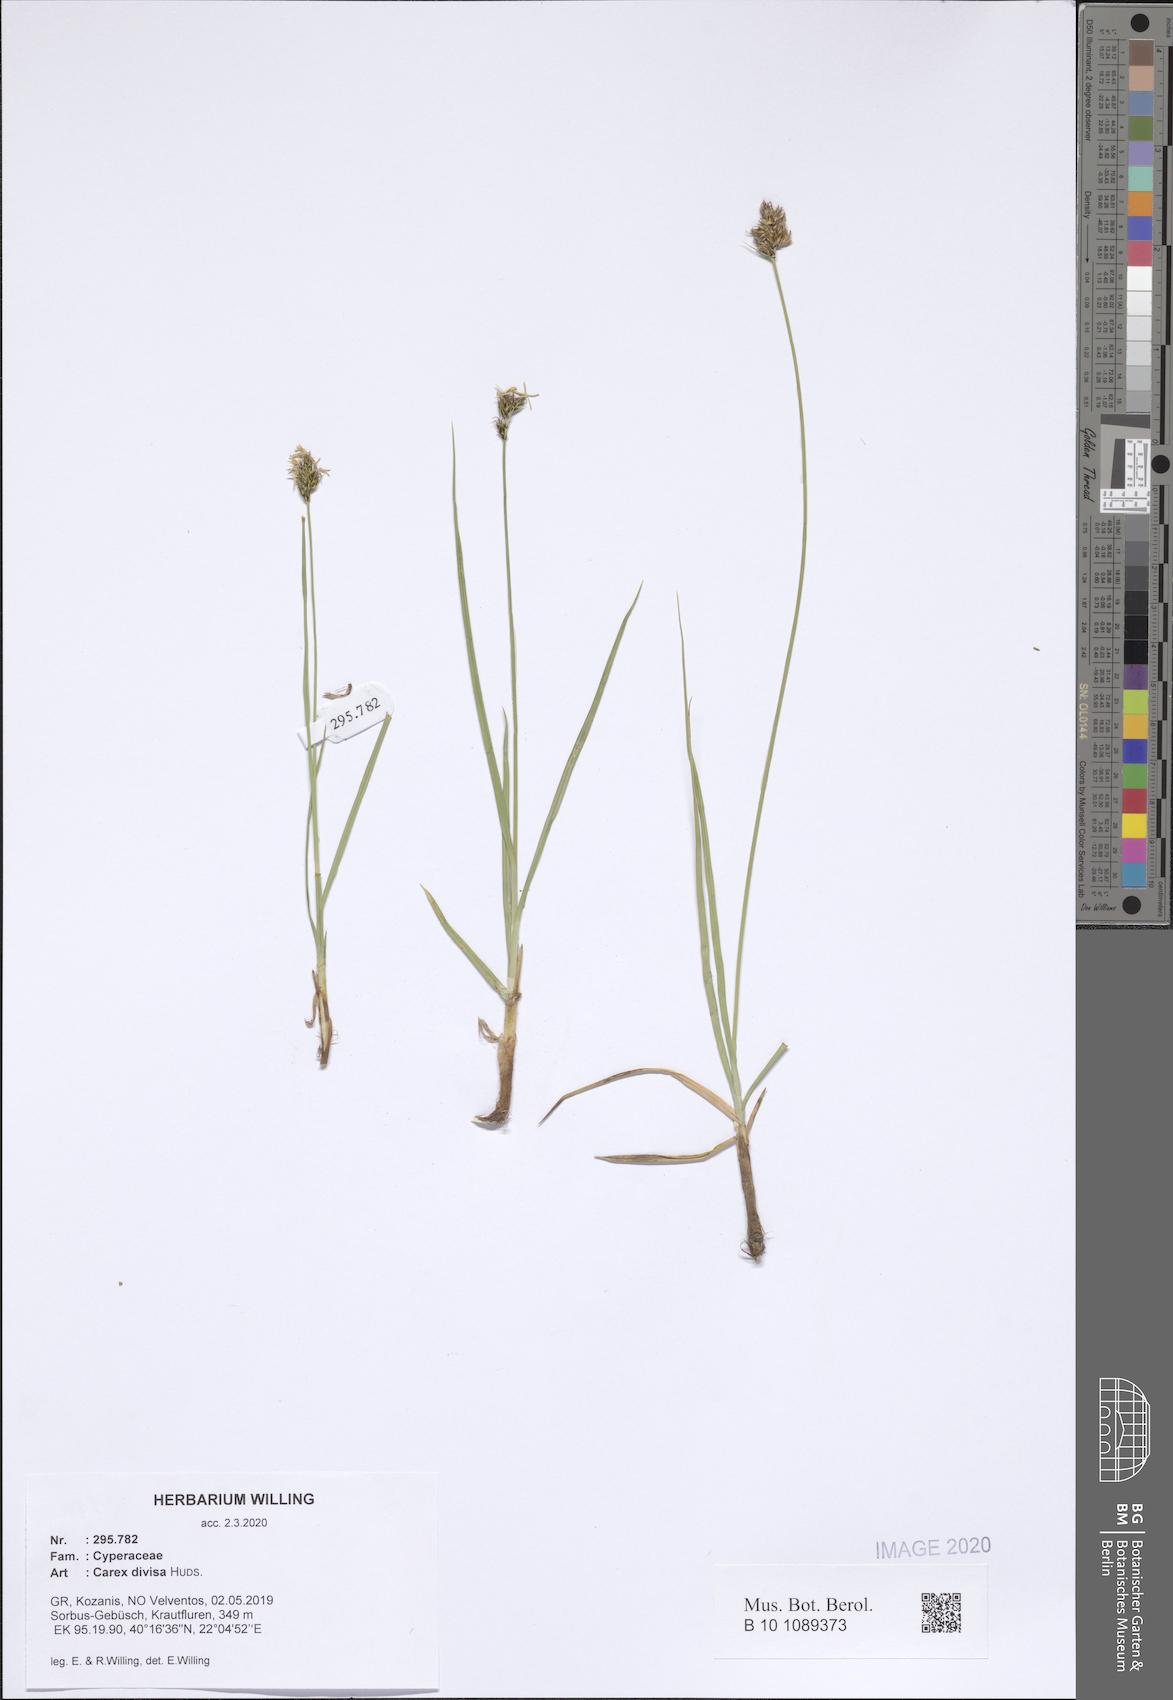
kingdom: Plantae
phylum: Tracheophyta
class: Liliopsida
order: Poales
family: Cyperaceae
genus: Carex
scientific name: Carex divisa
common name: Divided sedge
